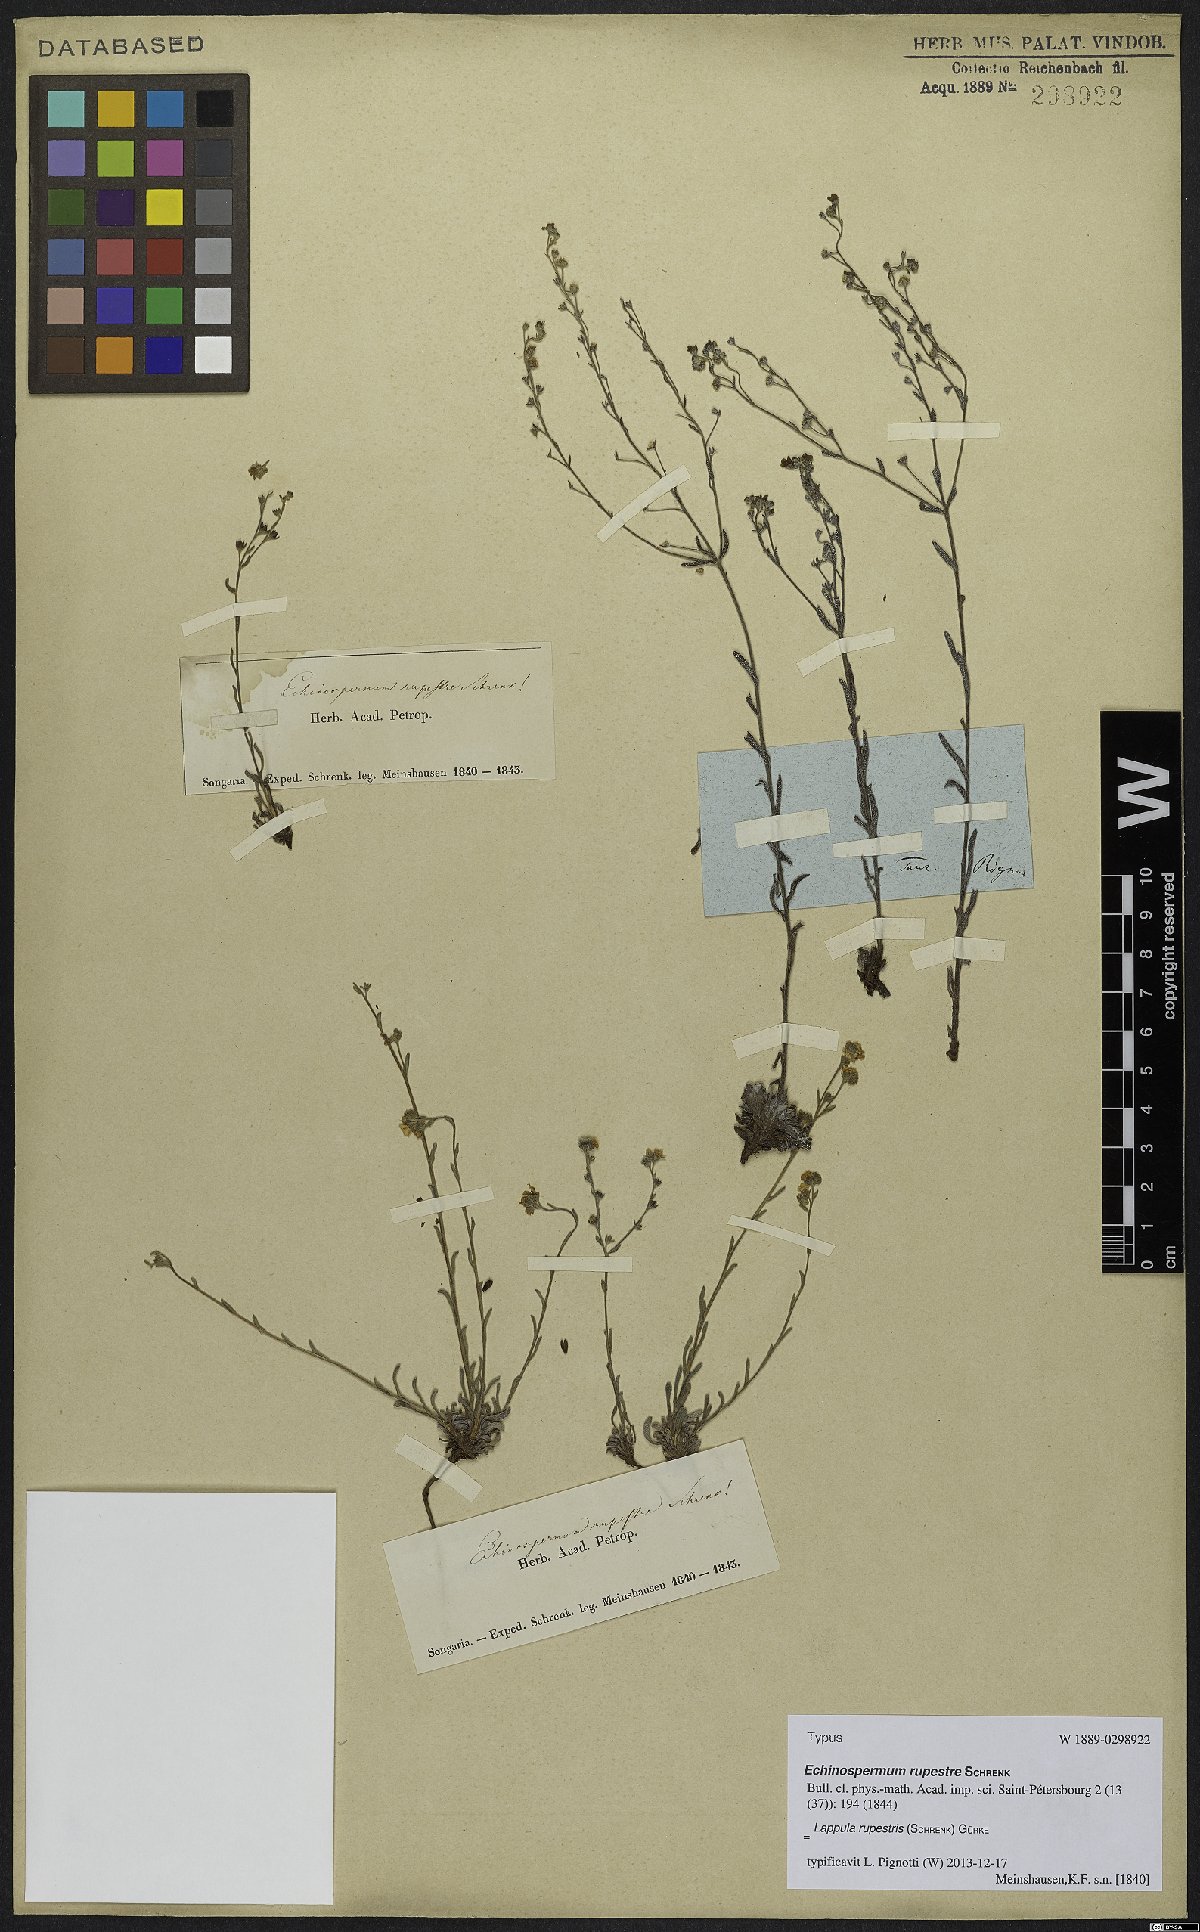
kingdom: Plantae
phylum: Tracheophyta
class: Magnoliopsida
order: Boraginales
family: Boraginaceae
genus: Lappula
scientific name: Lappula rupestris
